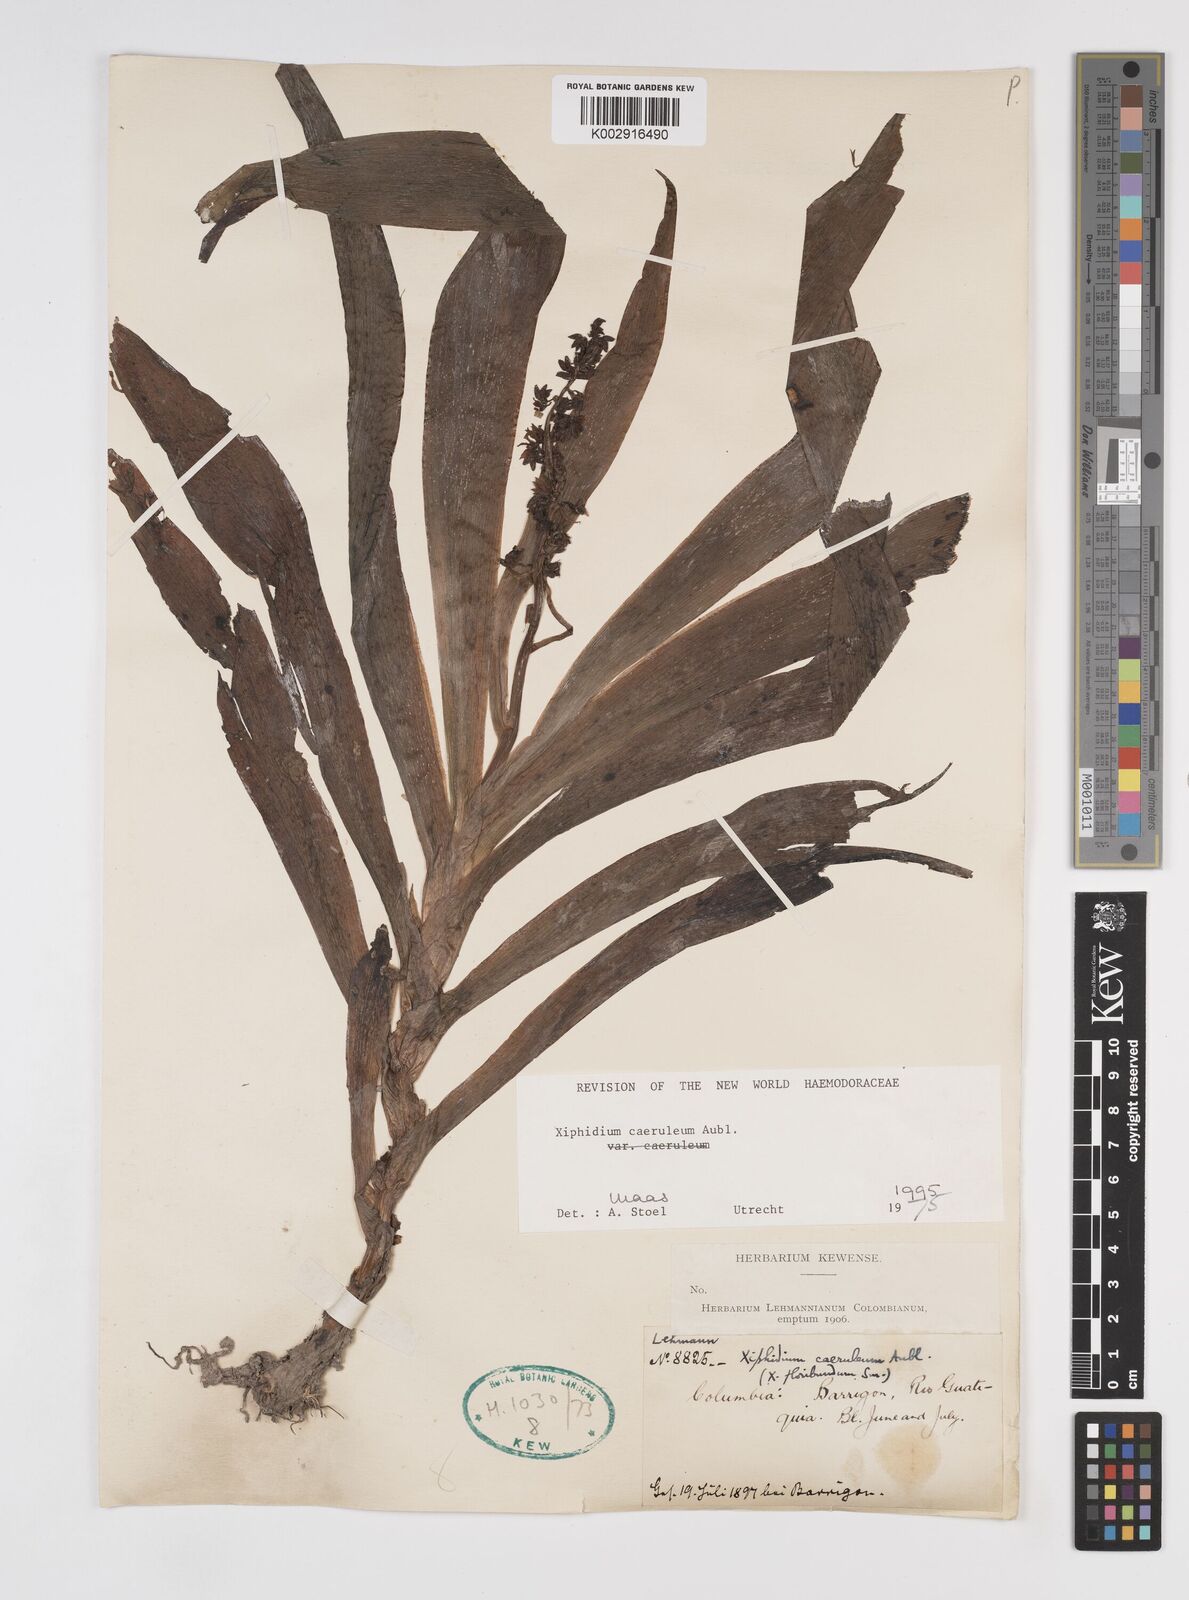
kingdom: Plantae
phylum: Tracheophyta
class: Liliopsida
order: Commelinales
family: Haemodoraceae
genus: Xiphidium
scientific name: Xiphidium caeruleum
